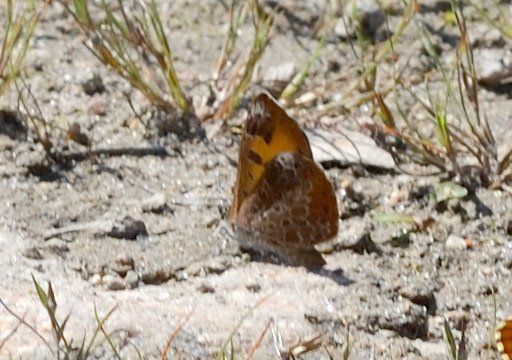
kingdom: Animalia
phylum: Arthropoda
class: Insecta
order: Lepidoptera
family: Lycaenidae
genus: Feniseca
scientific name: Feniseca tarquinius
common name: Harvester
